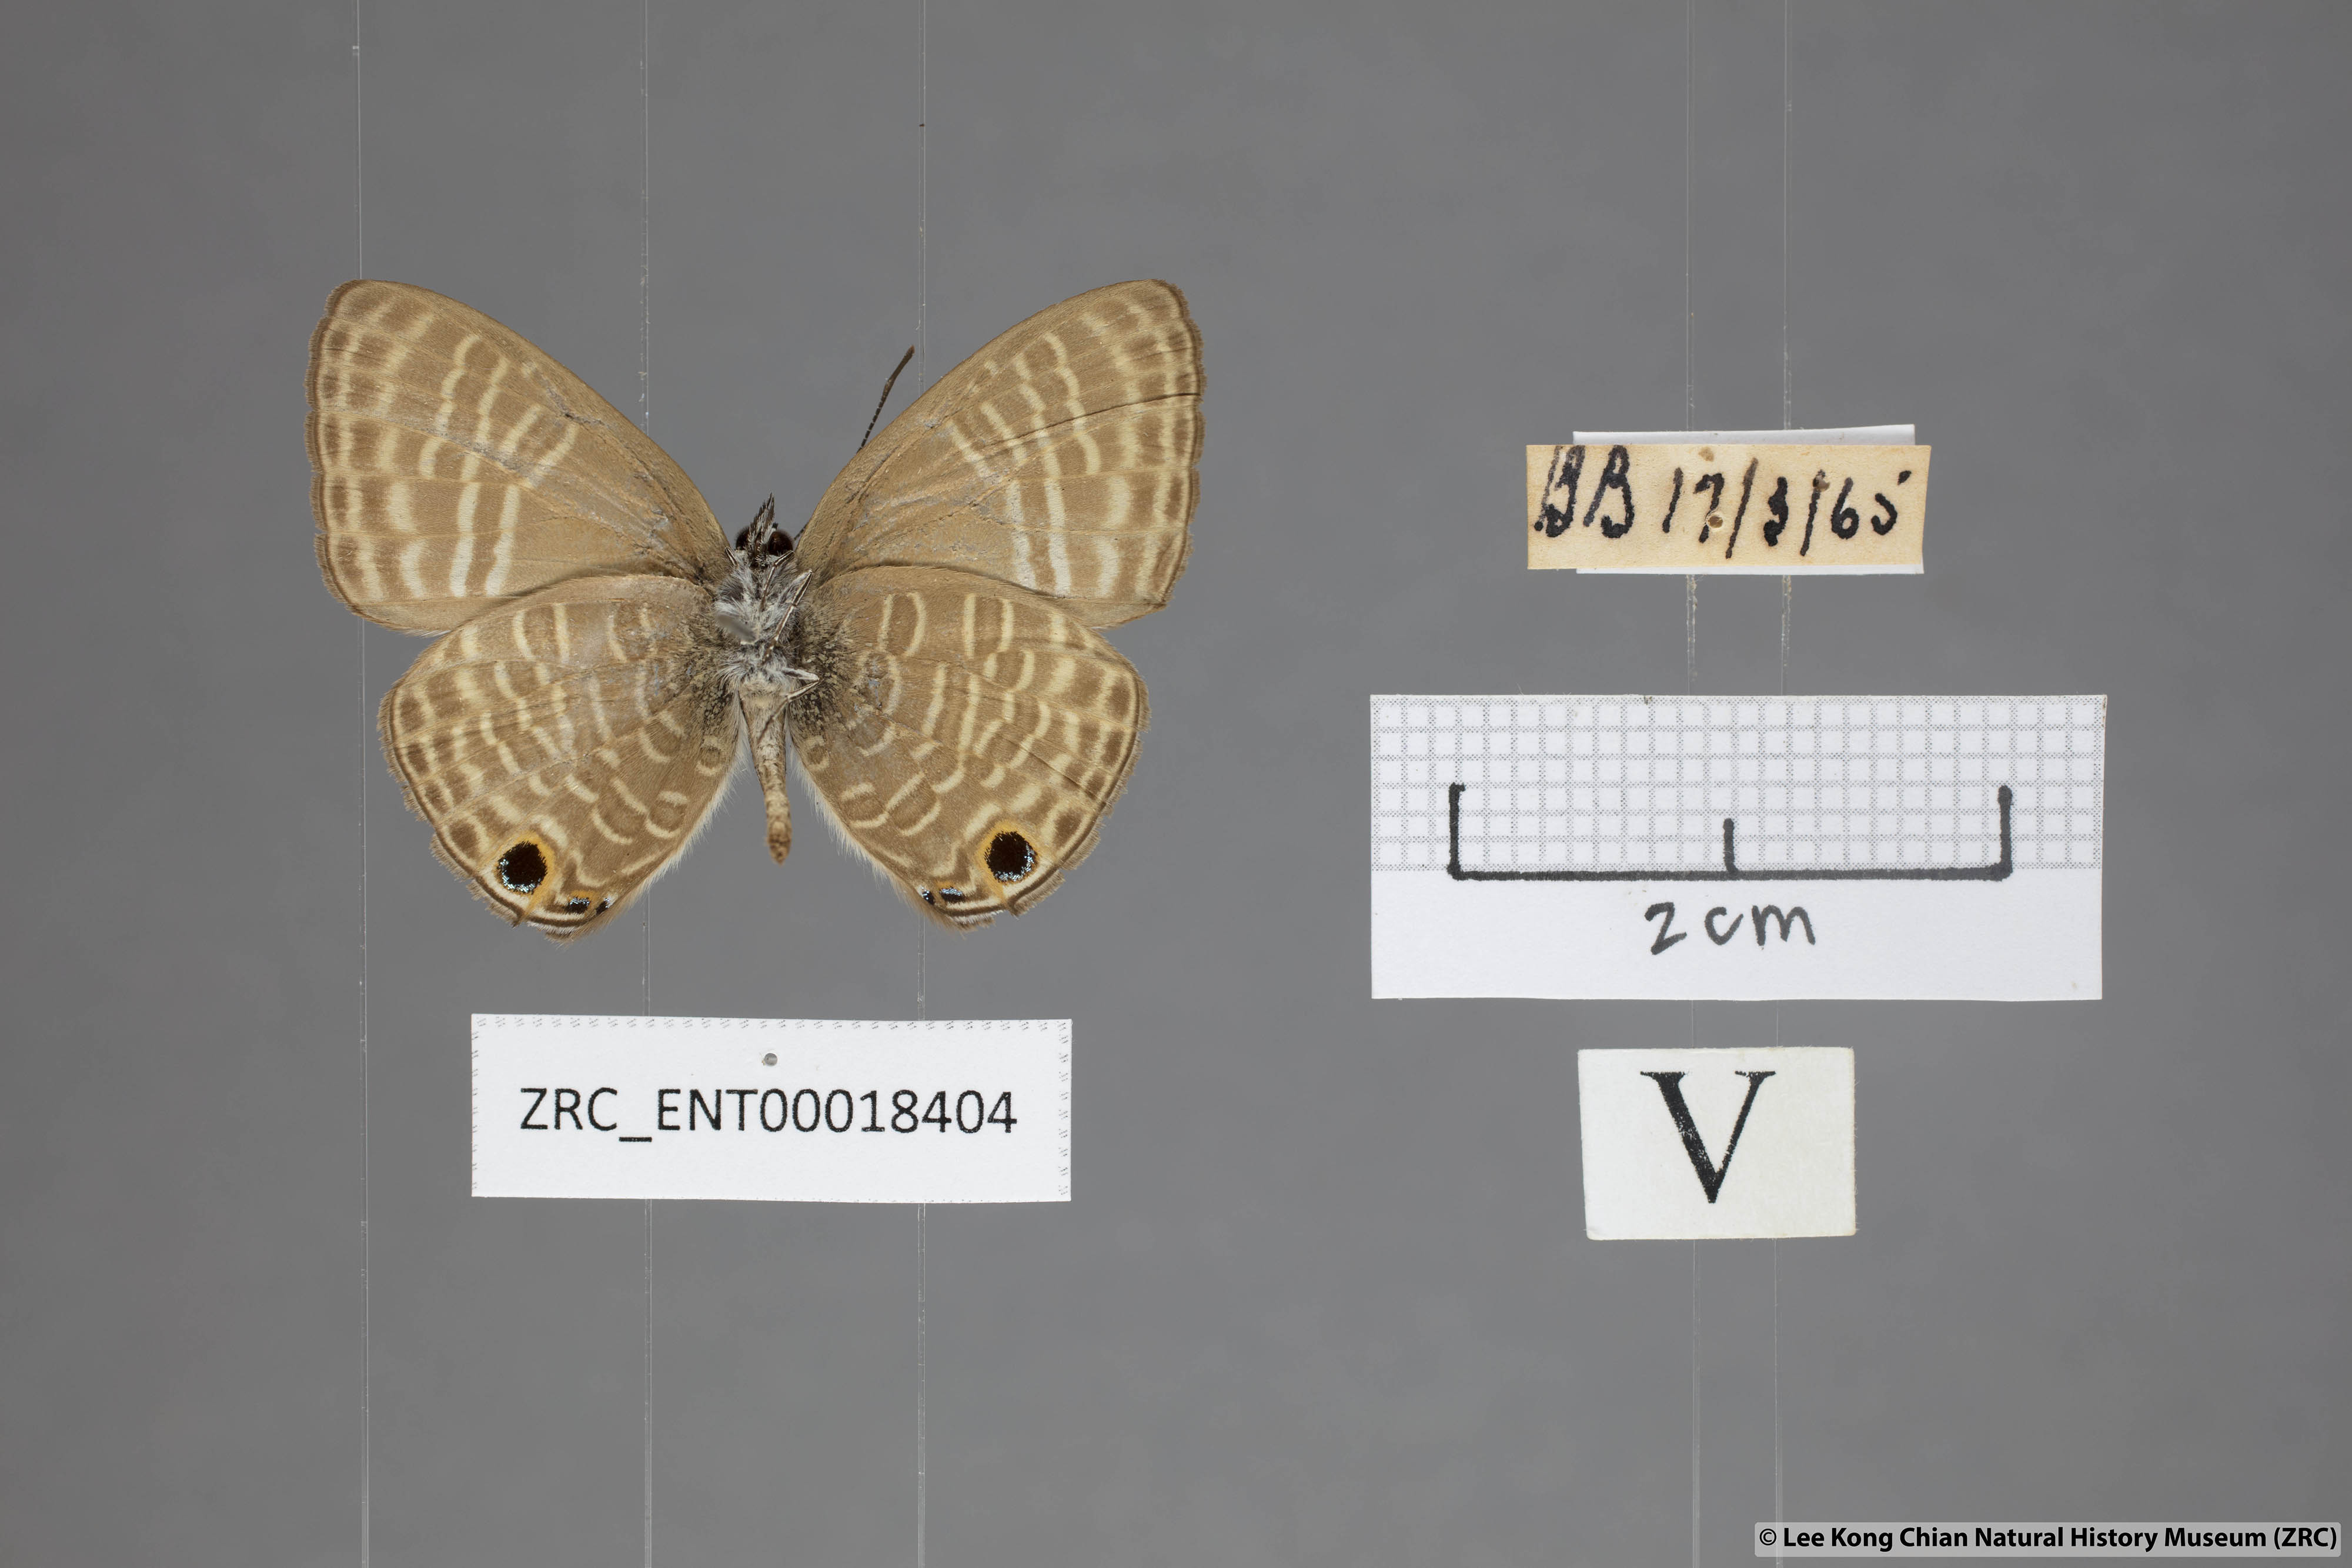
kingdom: Animalia
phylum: Arthropoda
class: Insecta
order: Lepidoptera
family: Lycaenidae
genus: Nacaduba
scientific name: Nacaduba pactolus
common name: Large fourline blue
